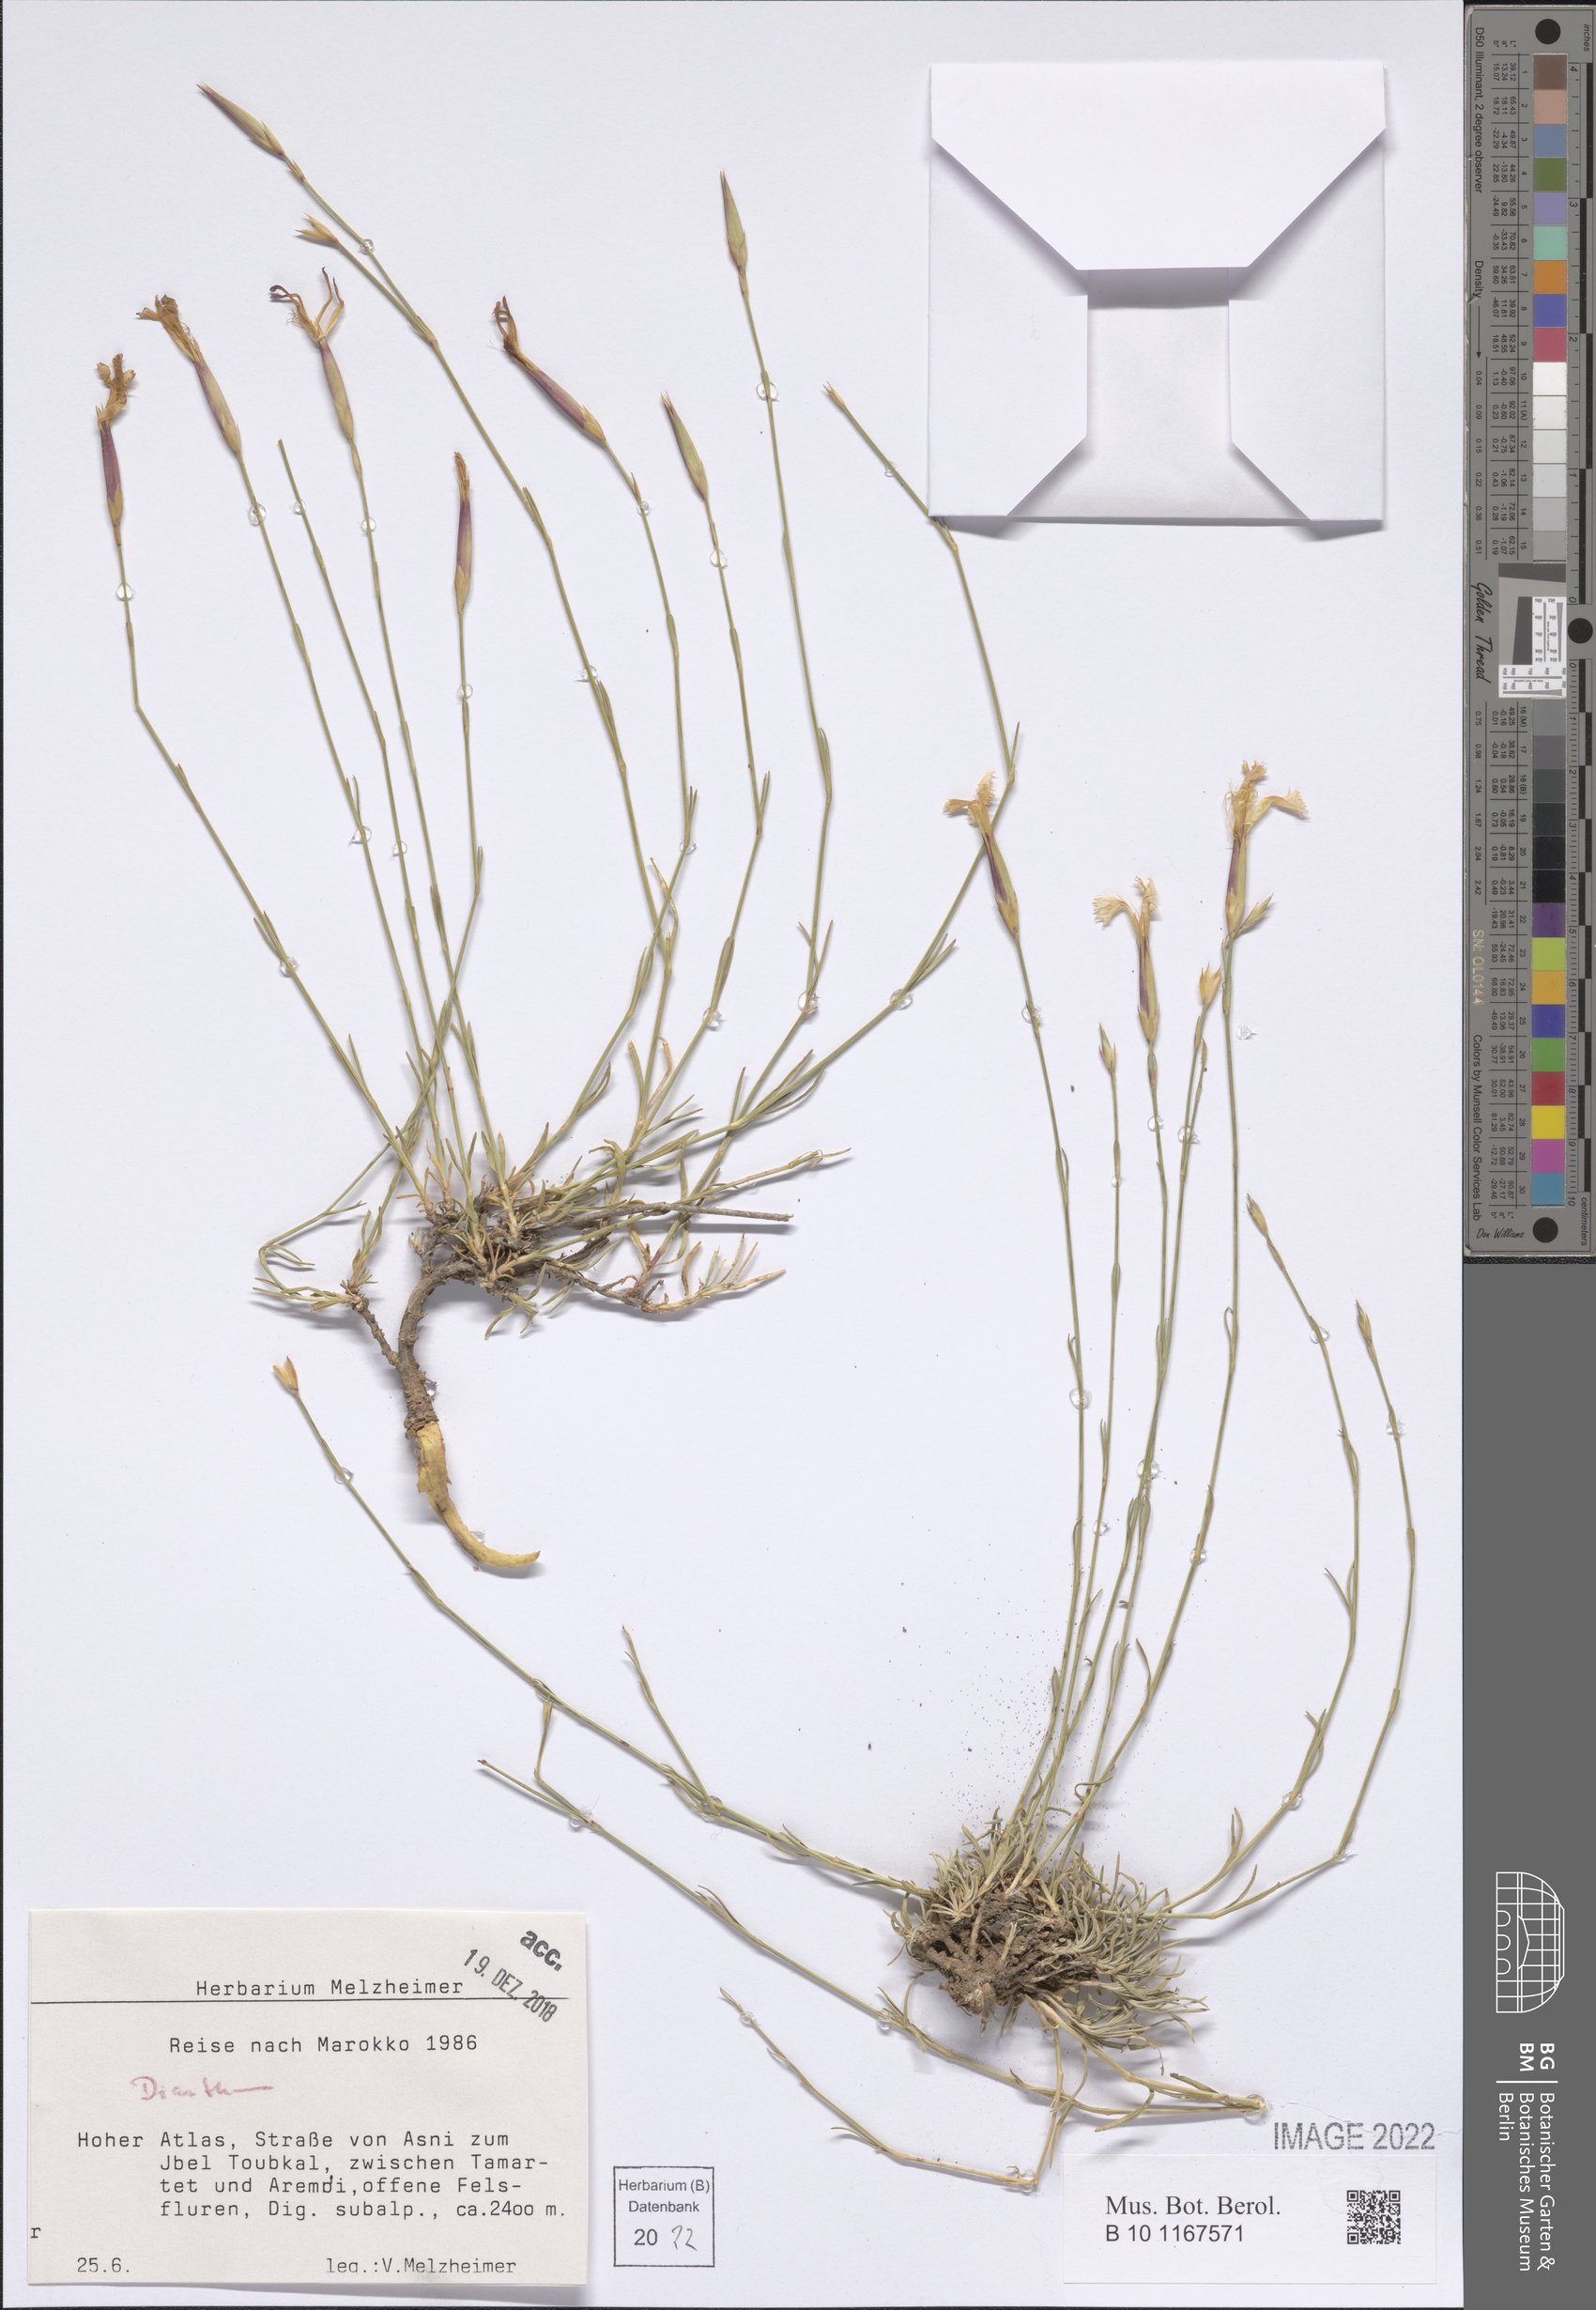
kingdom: Plantae
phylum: Tracheophyta
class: Magnoliopsida
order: Caryophyllales
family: Caryophyllaceae
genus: Dianthus
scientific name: Dianthus
